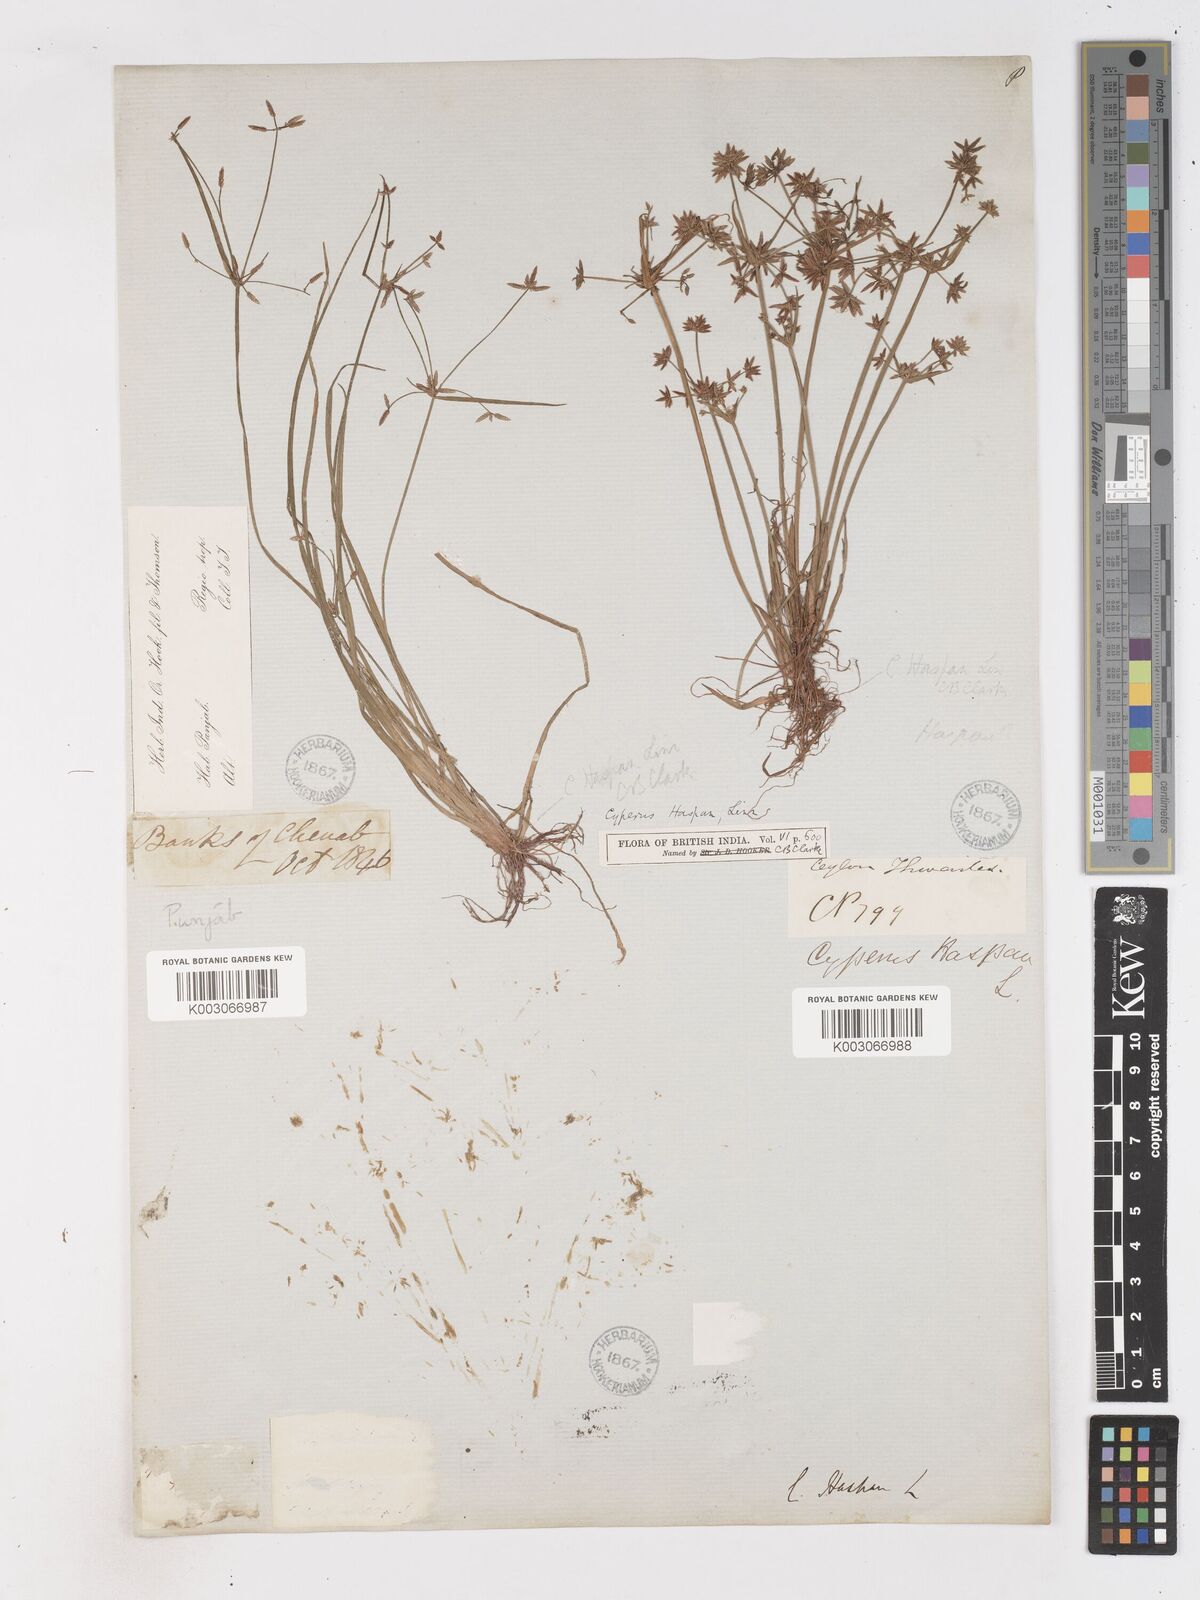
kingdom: Plantae
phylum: Tracheophyta
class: Liliopsida
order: Poales
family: Cyperaceae
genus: Cyperus
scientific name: Cyperus haspan
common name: Haspan flatsedge
